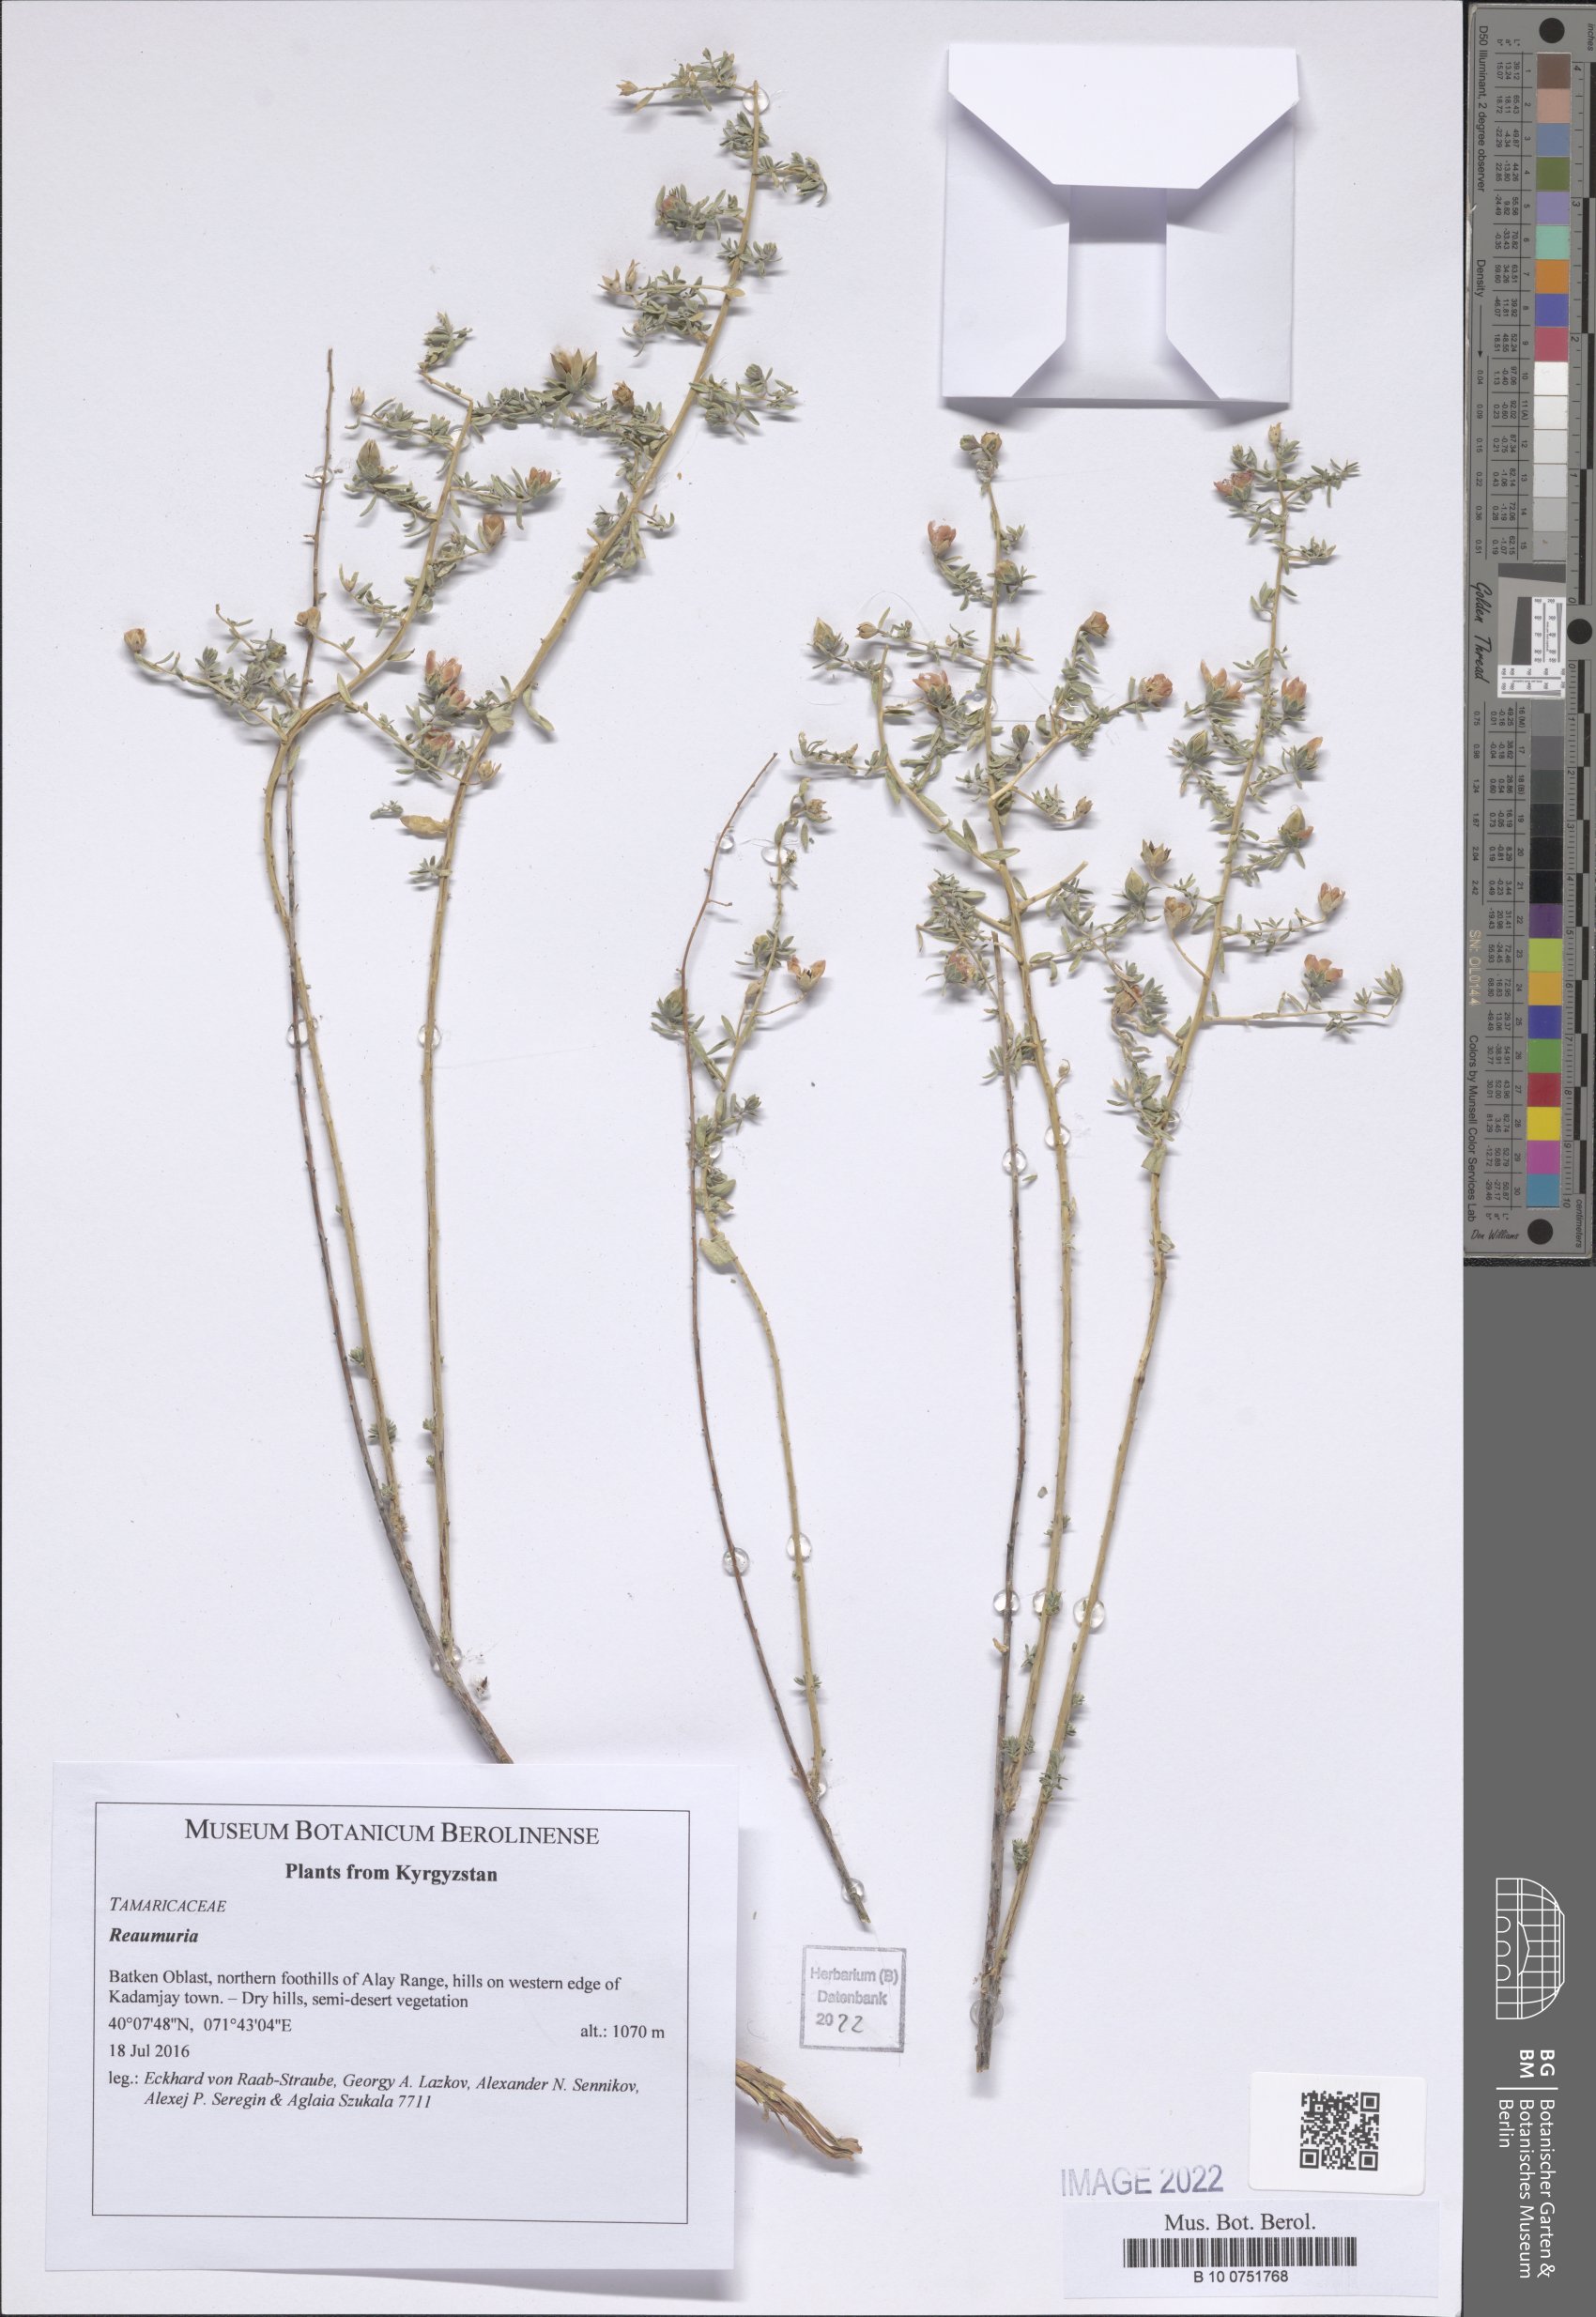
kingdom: Plantae
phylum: Tracheophyta
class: Magnoliopsida
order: Caryophyllales
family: Tamaricaceae
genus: Reaumuria
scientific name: Reaumuria
